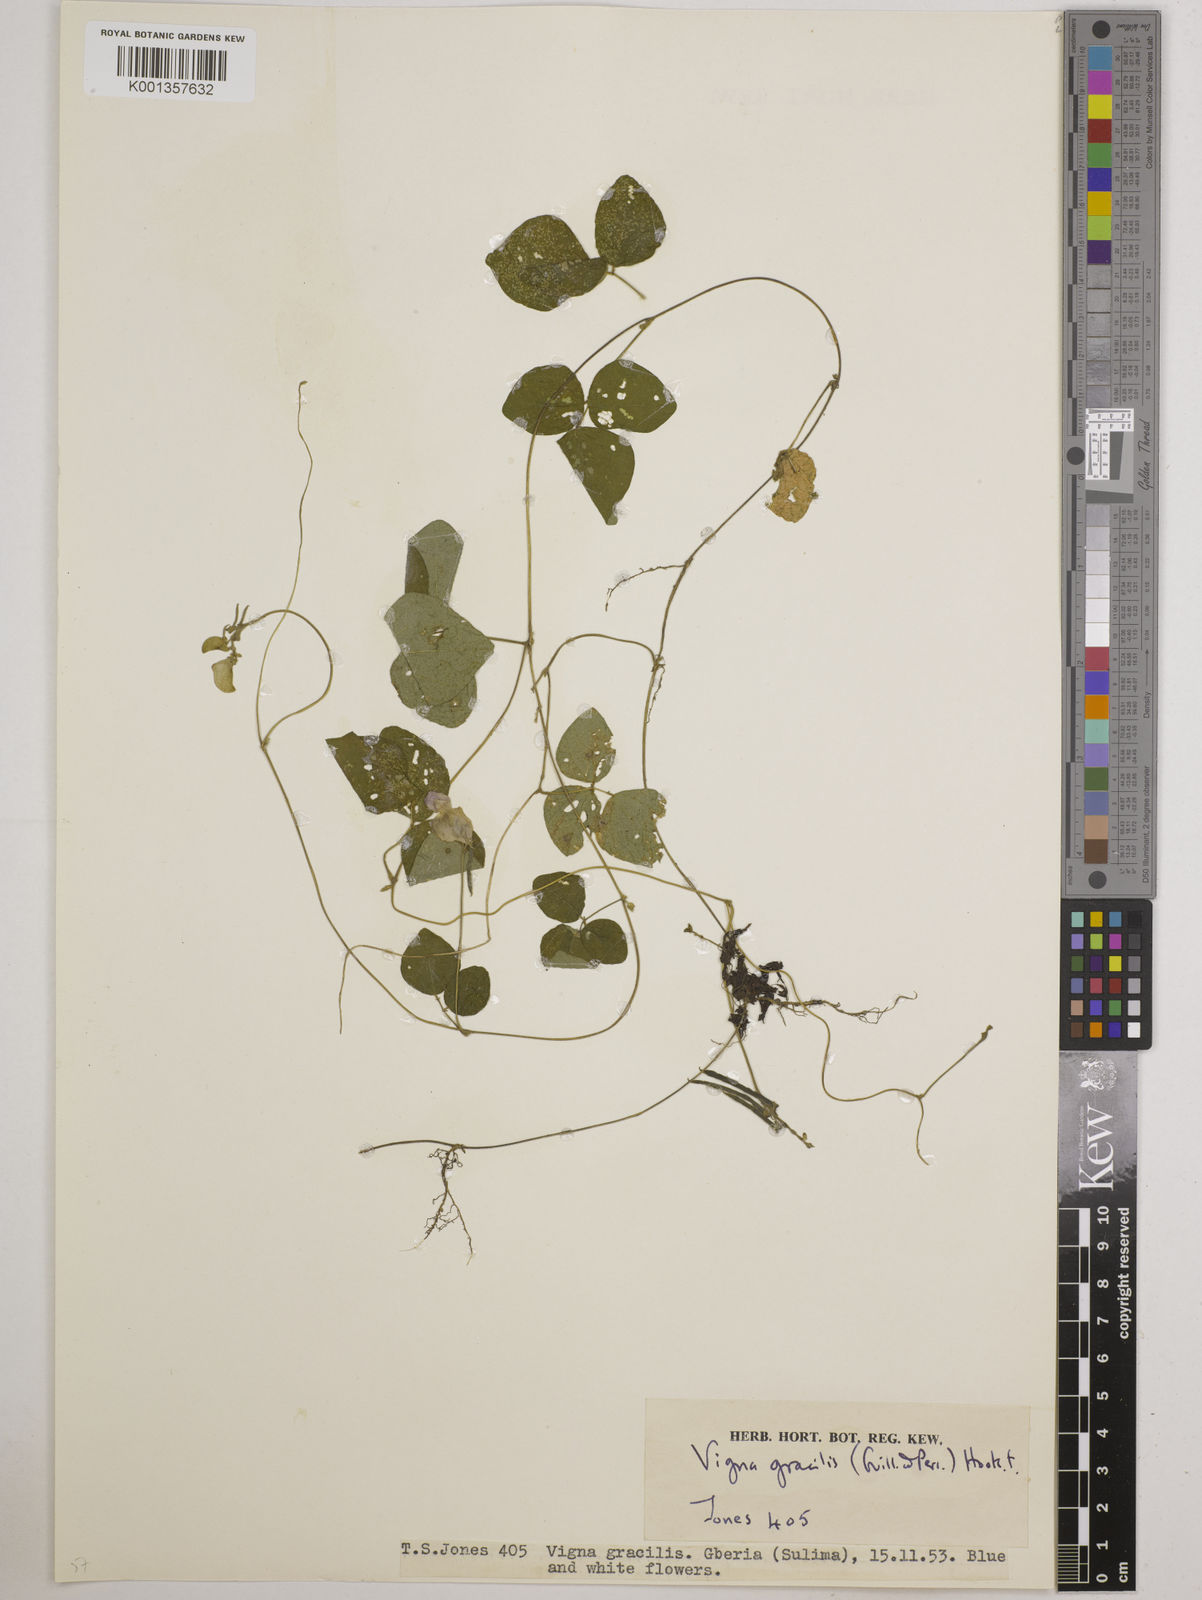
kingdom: Plantae
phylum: Tracheophyta
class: Magnoliopsida
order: Fabales
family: Fabaceae
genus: Vigna
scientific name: Vigna gracilis
